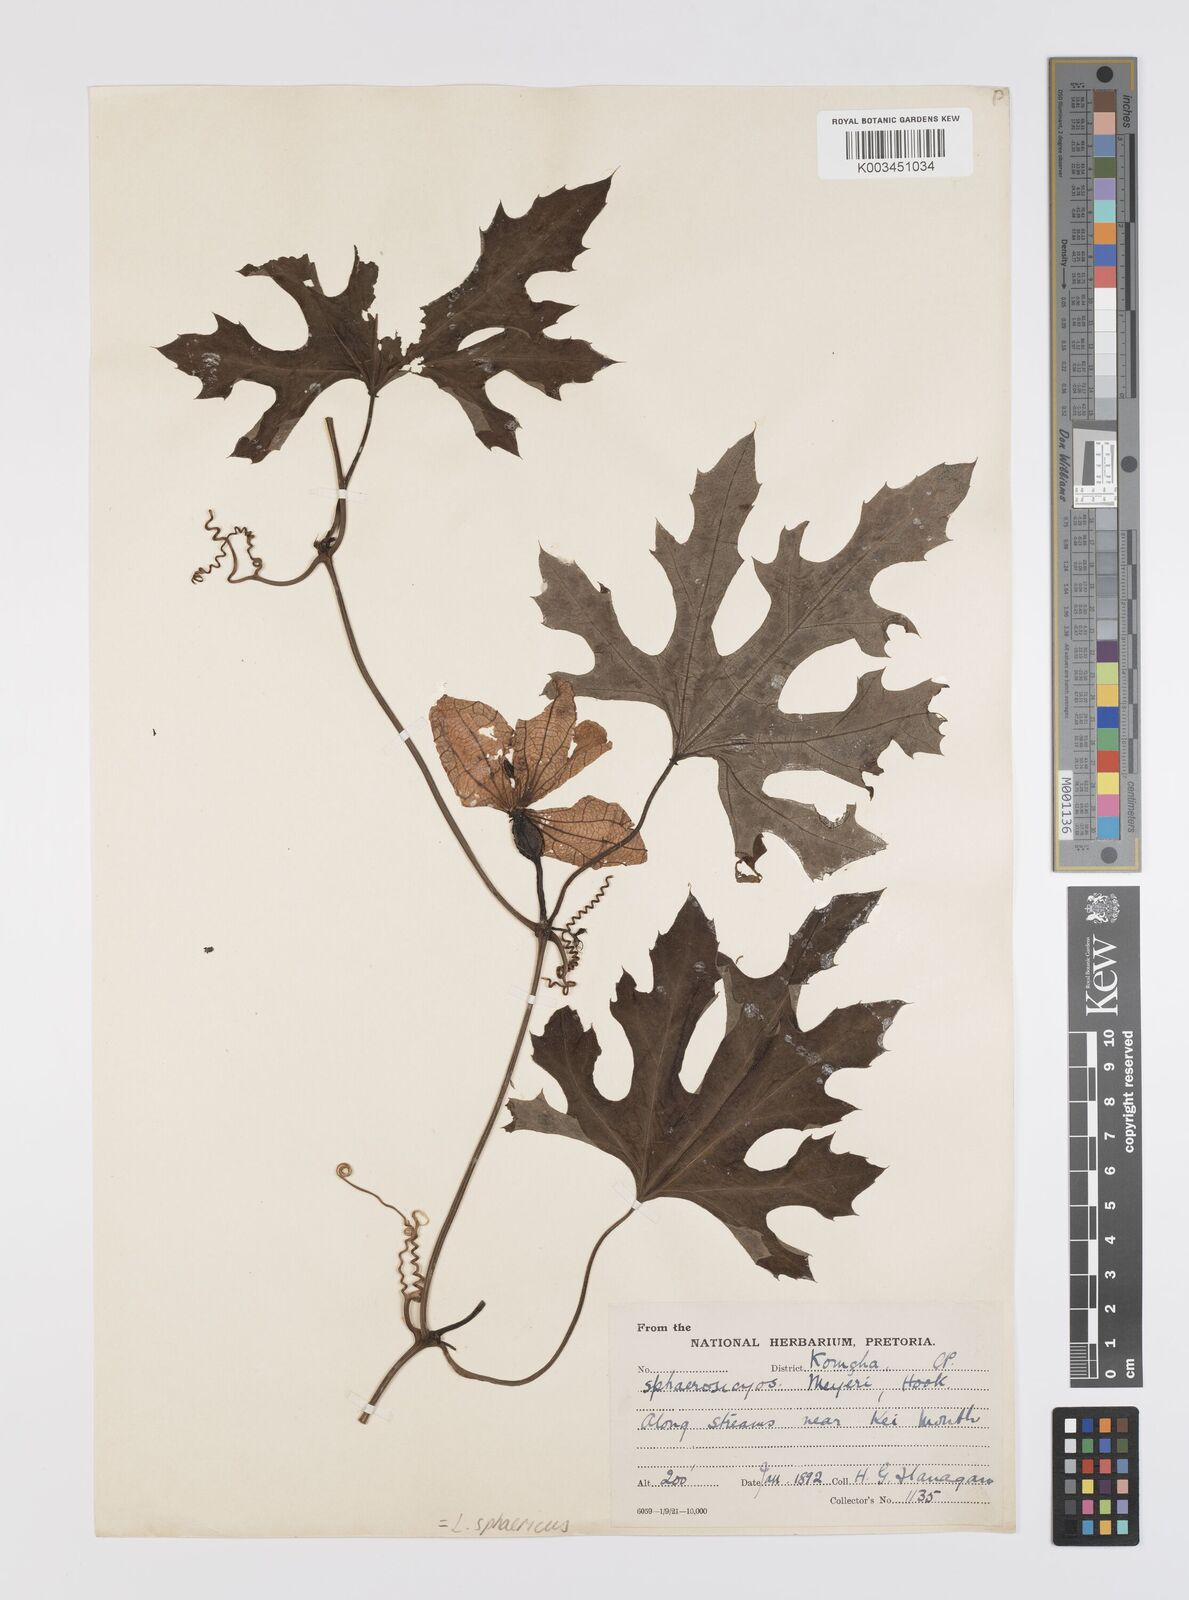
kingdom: Plantae
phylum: Tracheophyta
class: Magnoliopsida
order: Cucurbitales
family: Cucurbitaceae
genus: Lagenaria
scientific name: Lagenaria sphaerica
